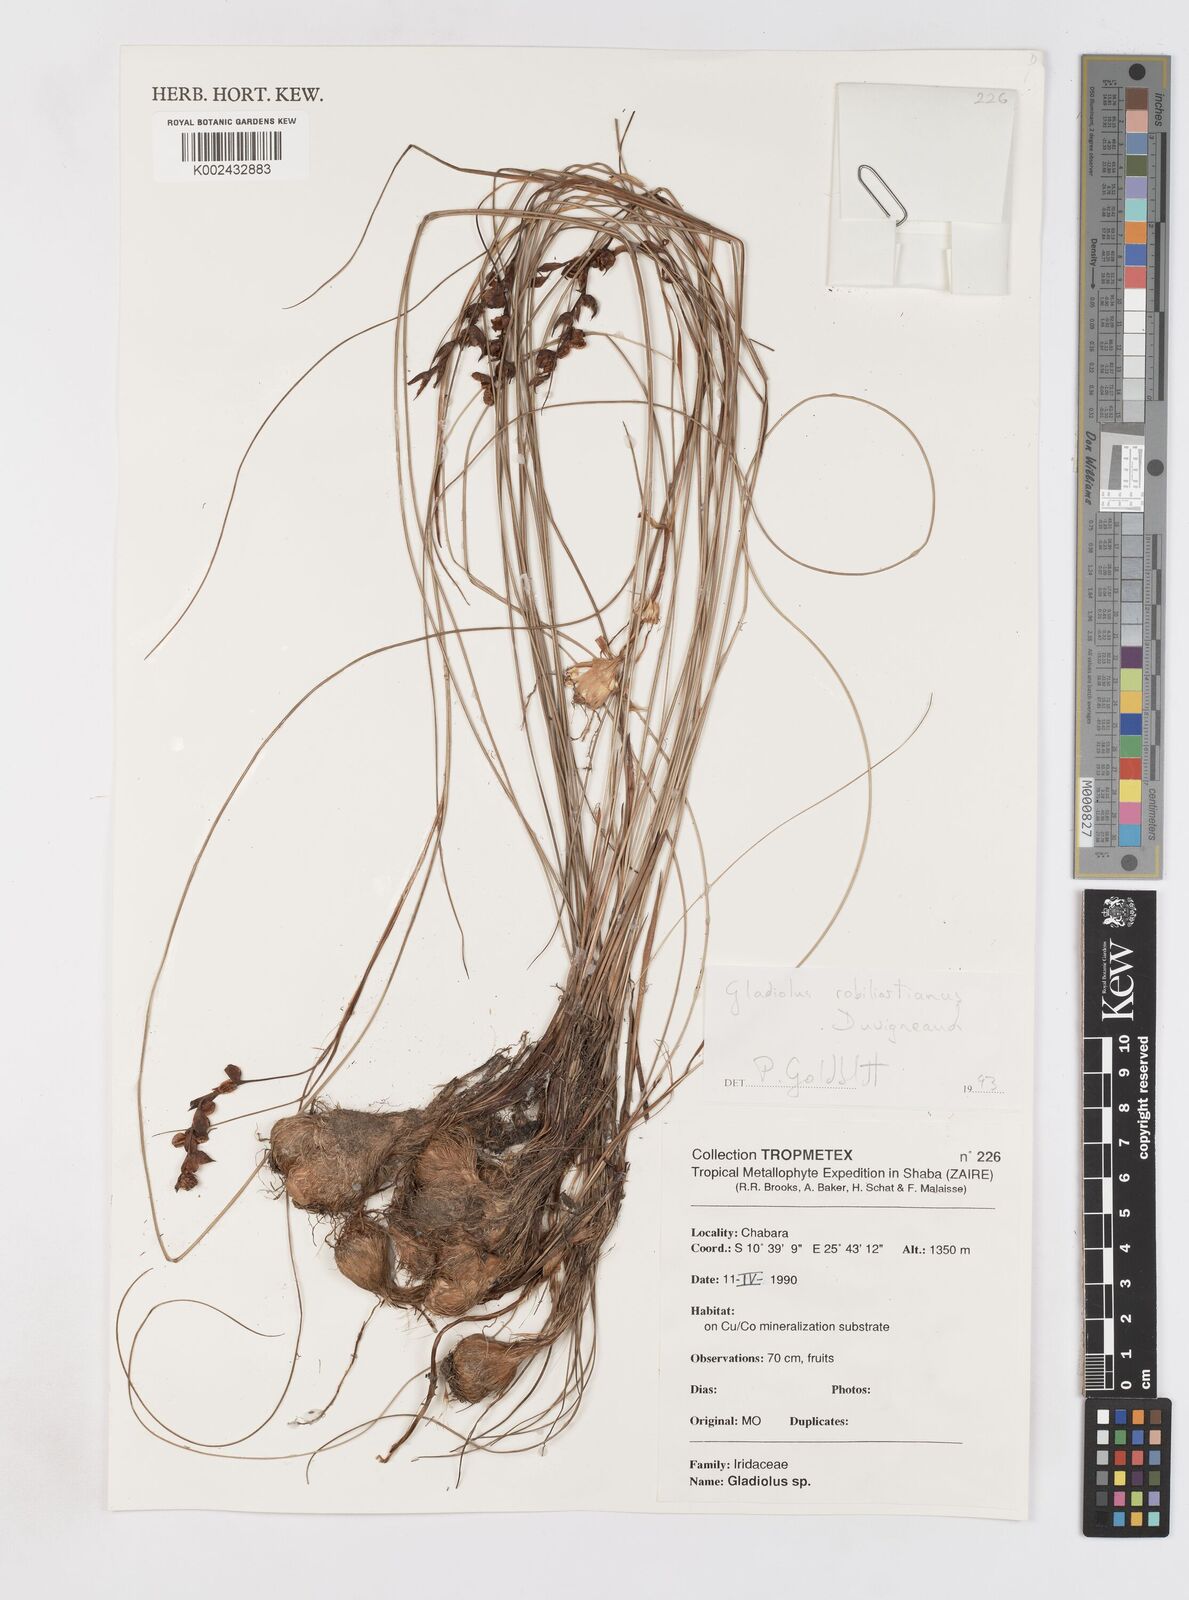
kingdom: Plantae
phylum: Tracheophyta
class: Liliopsida
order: Asparagales
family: Iridaceae
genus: Gladiolus
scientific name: Gladiolus robiliartianus
